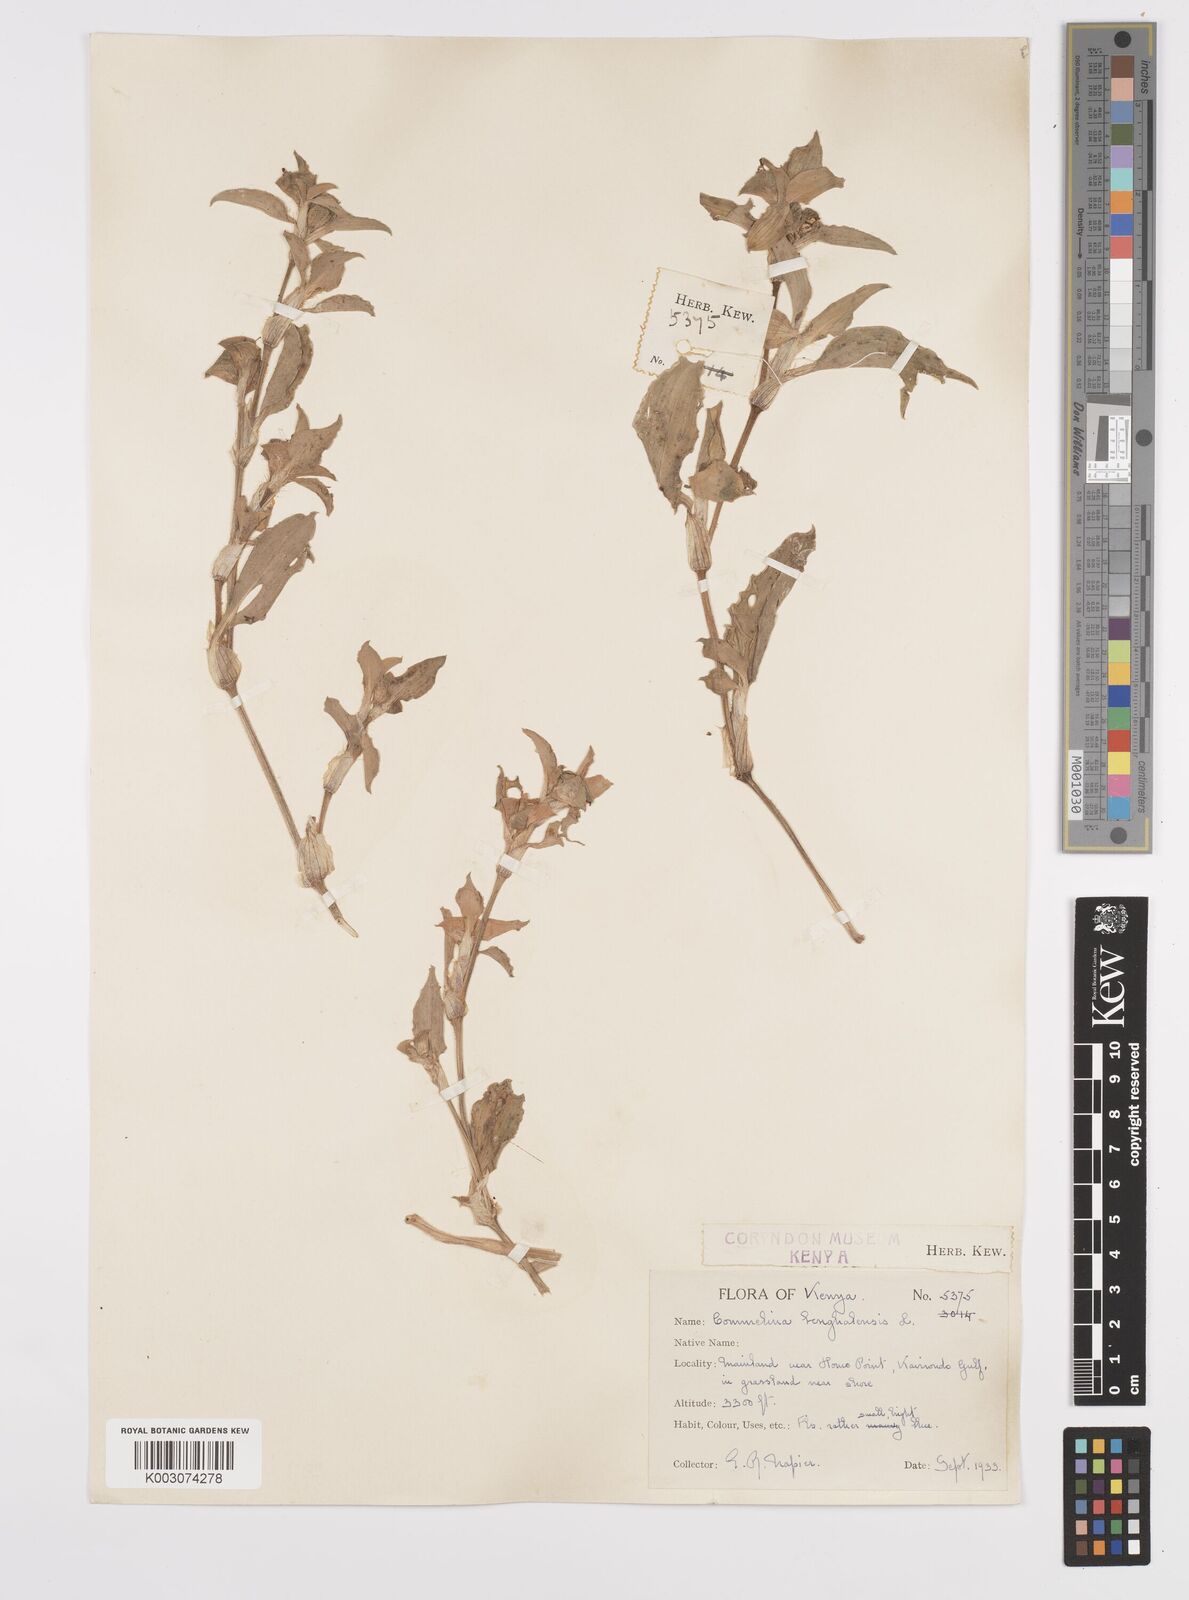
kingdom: Plantae
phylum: Tracheophyta
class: Liliopsida
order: Commelinales
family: Commelinaceae
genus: Commelina
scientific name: Commelina benghalensis
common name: Jio
